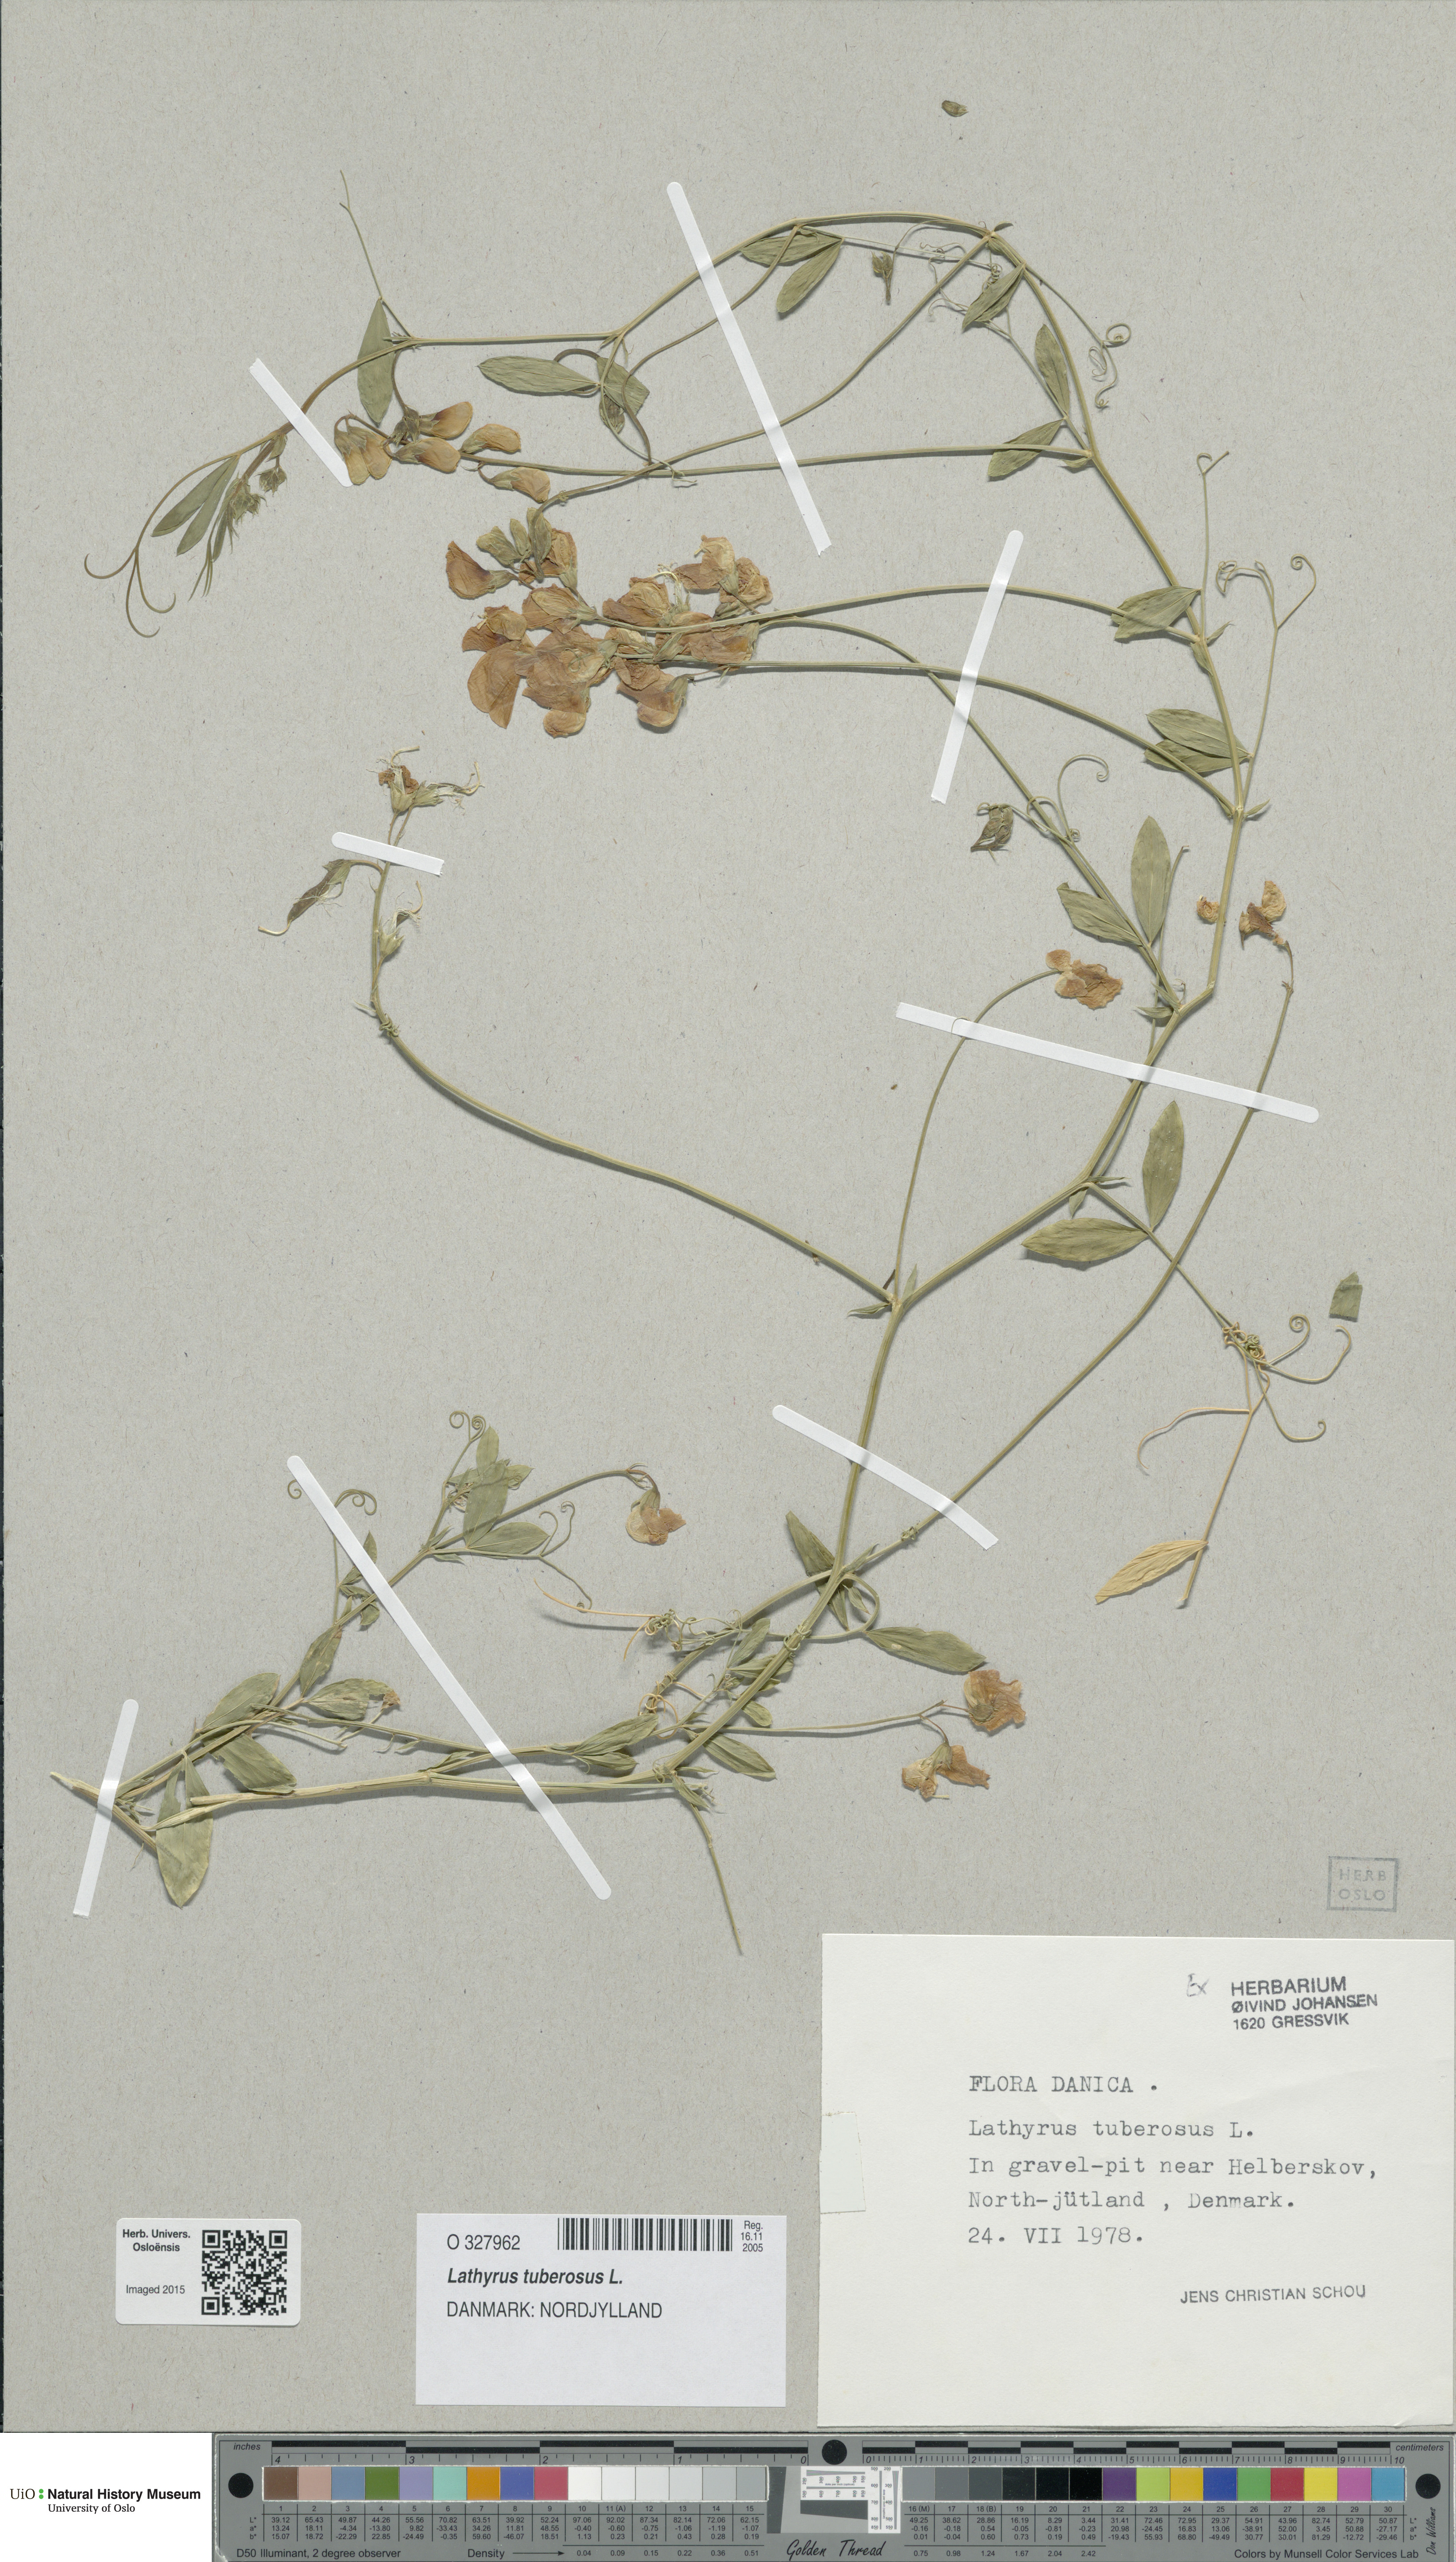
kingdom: Plantae
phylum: Tracheophyta
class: Magnoliopsida
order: Fabales
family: Fabaceae
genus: Lathyrus
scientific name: Lathyrus tuberosus
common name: Tuberous pea
